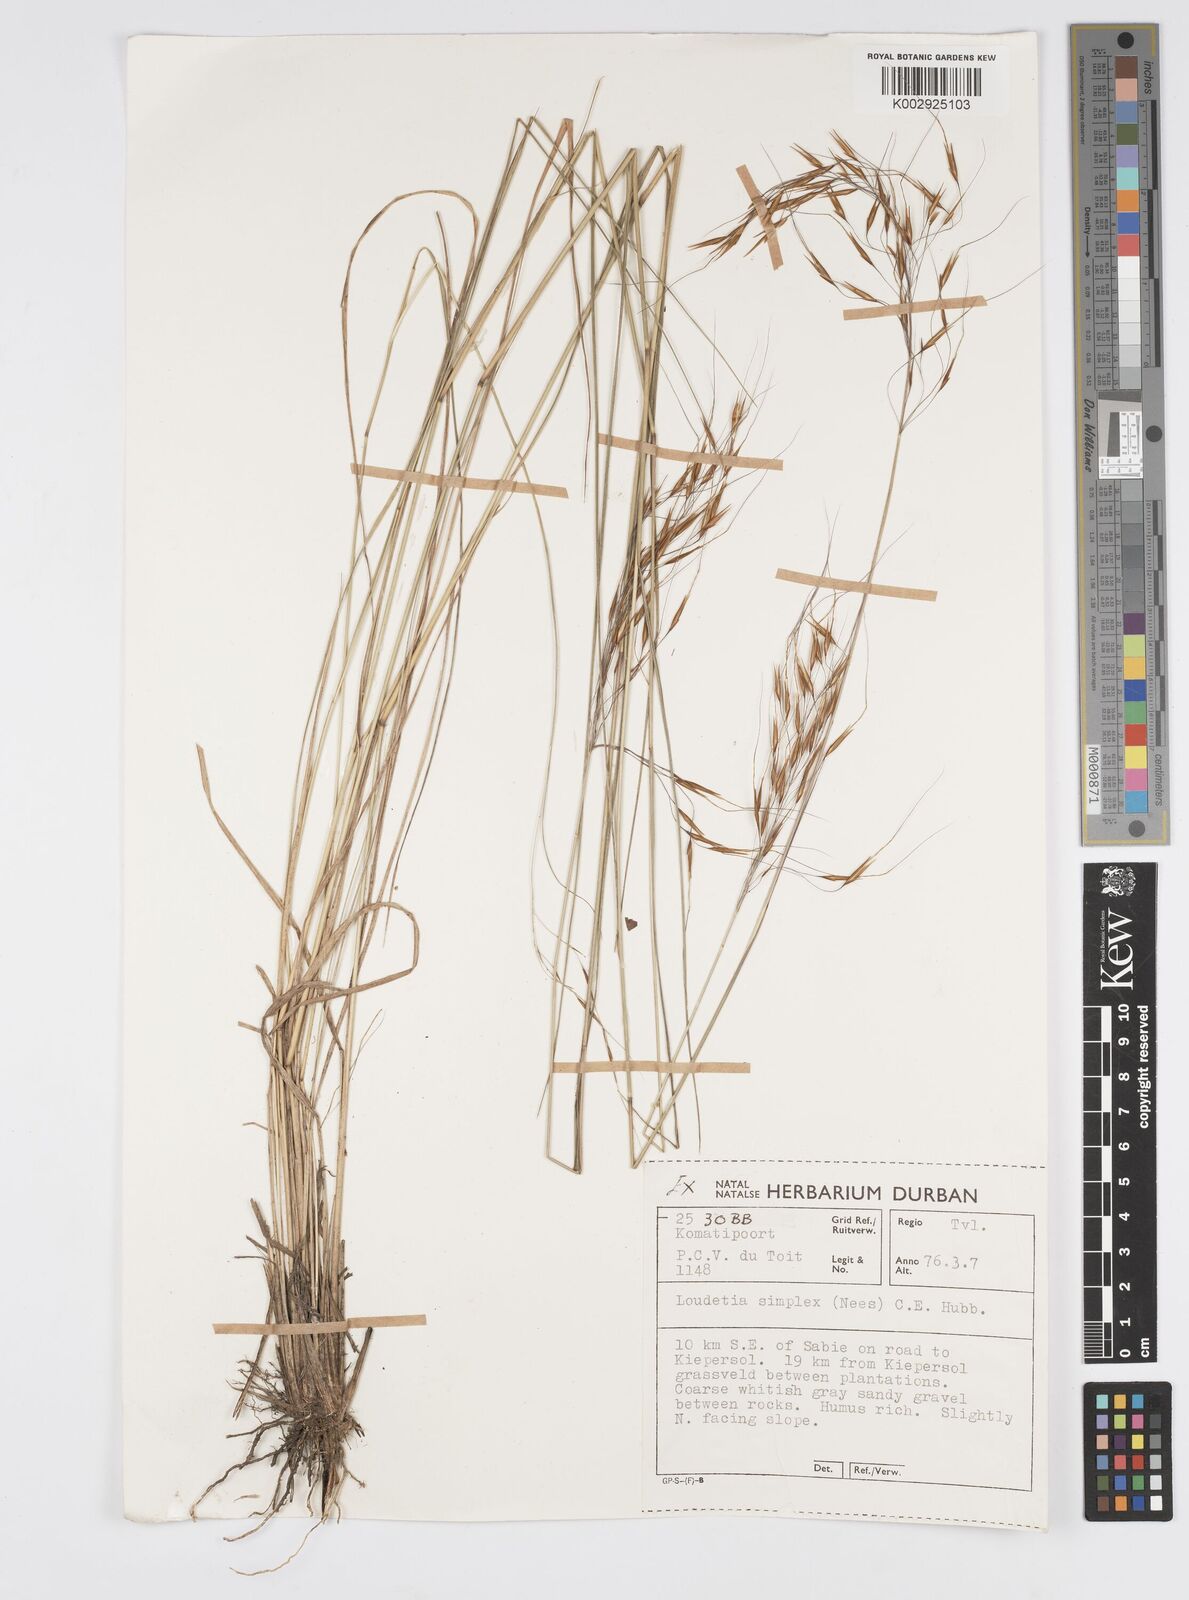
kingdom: Plantae
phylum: Tracheophyta
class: Liliopsida
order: Poales
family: Poaceae
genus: Loudetia
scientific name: Loudetia simplex
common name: Common russet grass
